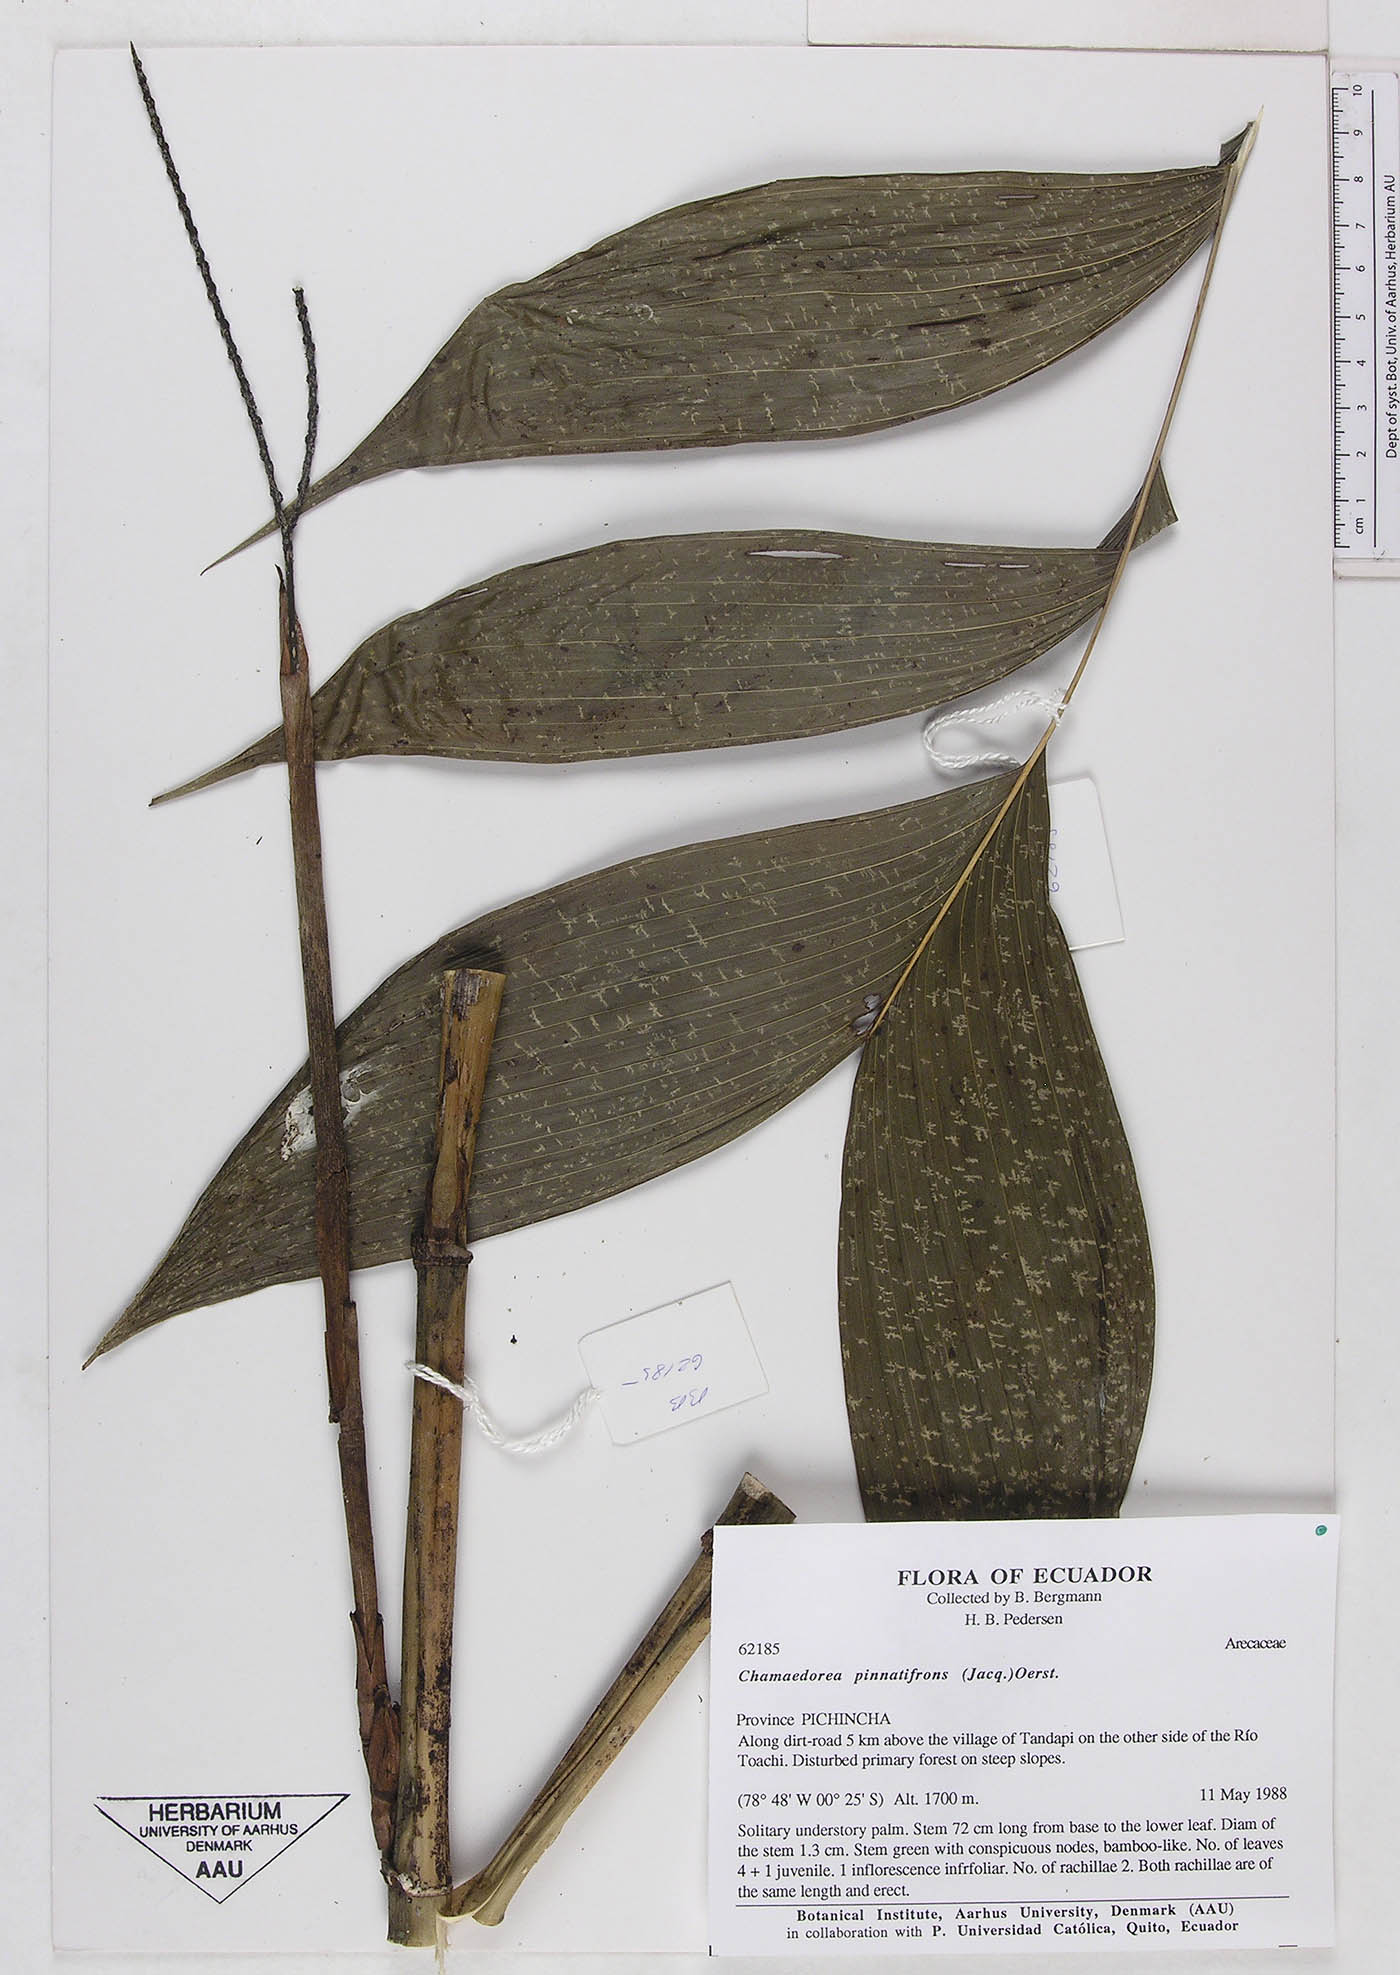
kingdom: Plantae
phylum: Tracheophyta
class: Liliopsida
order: Arecales
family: Arecaceae
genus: Chamaedorea
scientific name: Chamaedorea pinnatifrons
